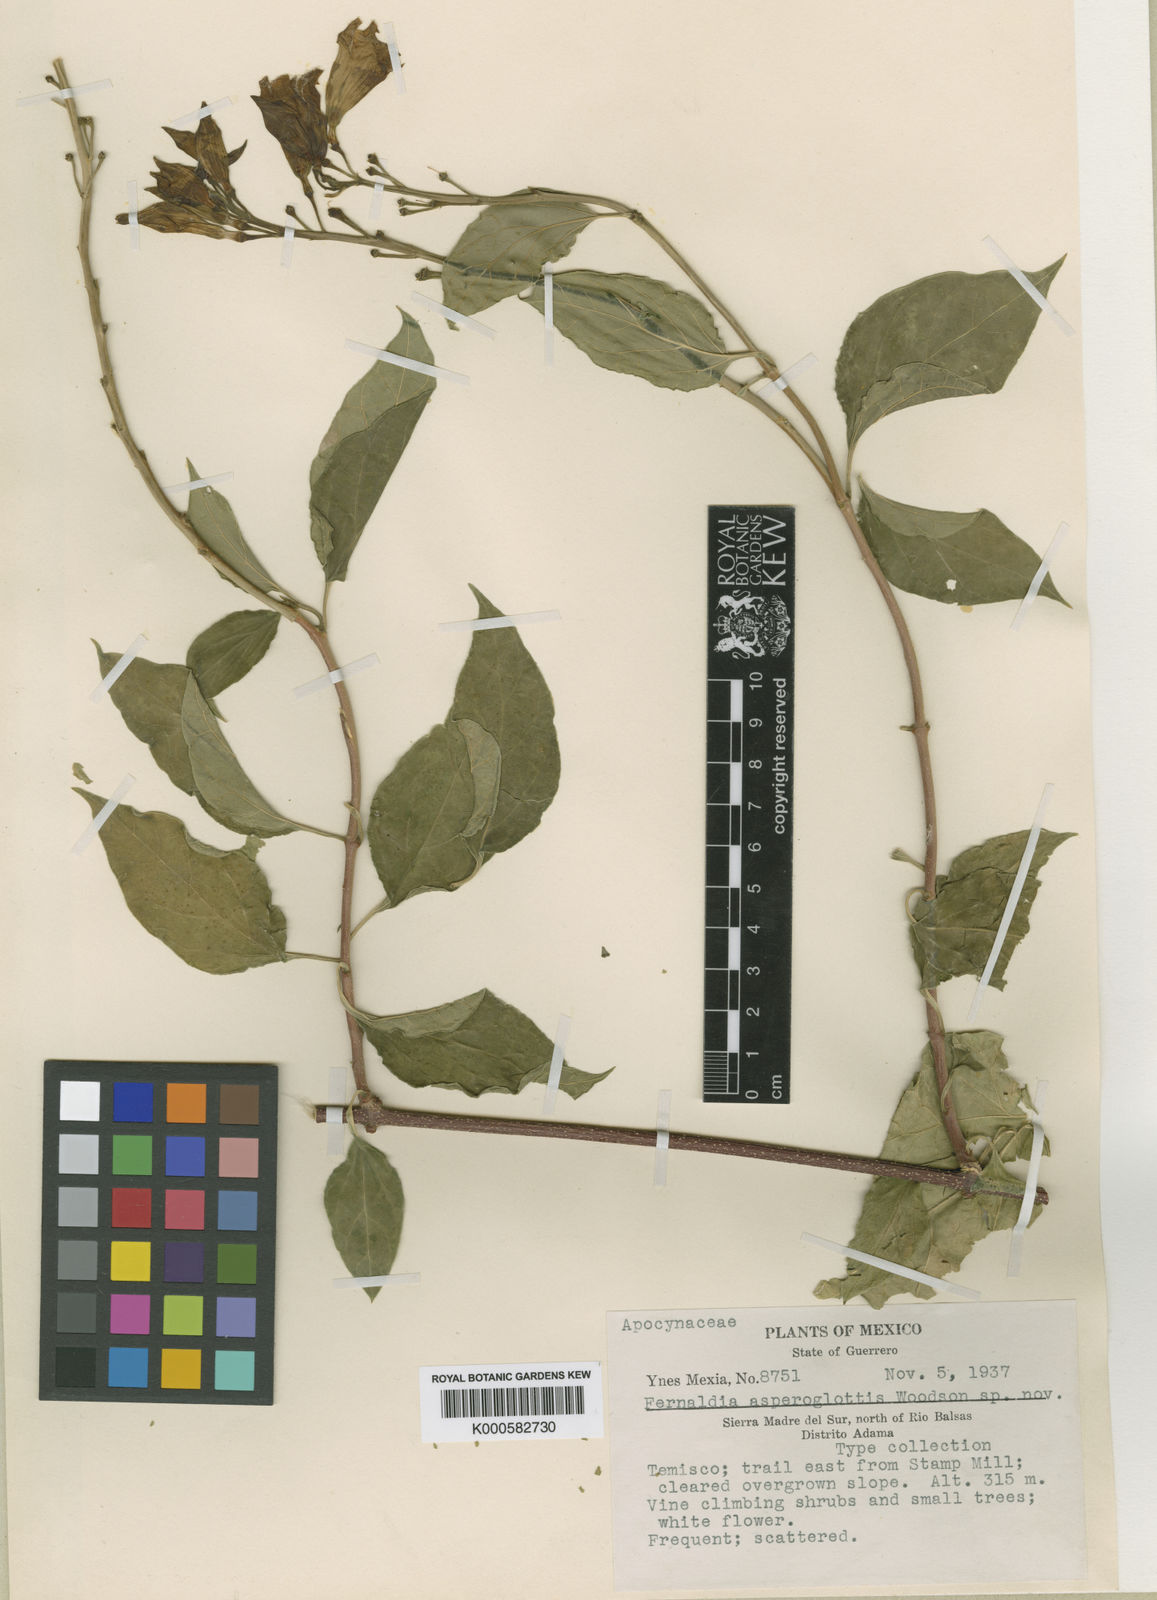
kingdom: Plantae
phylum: Tracheophyta
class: Magnoliopsida
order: Gentianales
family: Apocynaceae
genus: Echites
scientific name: Echites asperoglottis
